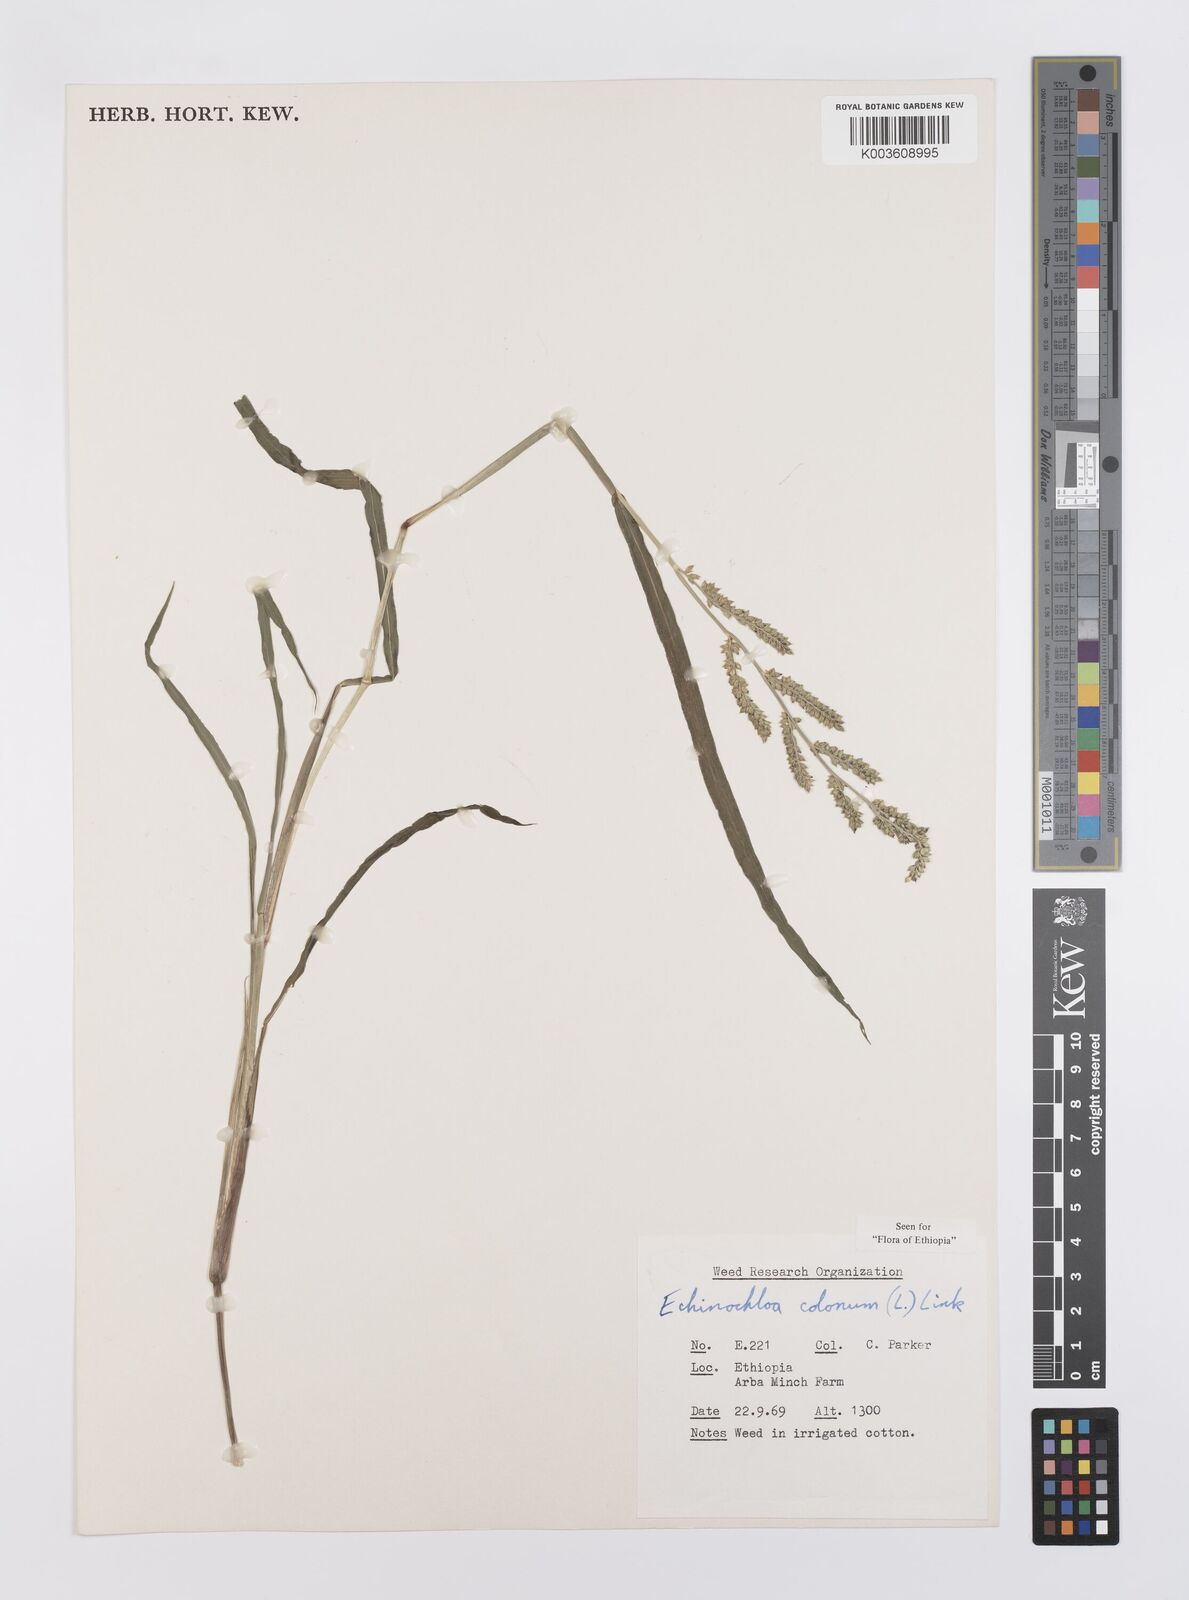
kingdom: Plantae
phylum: Tracheophyta
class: Liliopsida
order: Poales
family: Poaceae
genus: Echinochloa
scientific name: Echinochloa colonum
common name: Jungle rice
